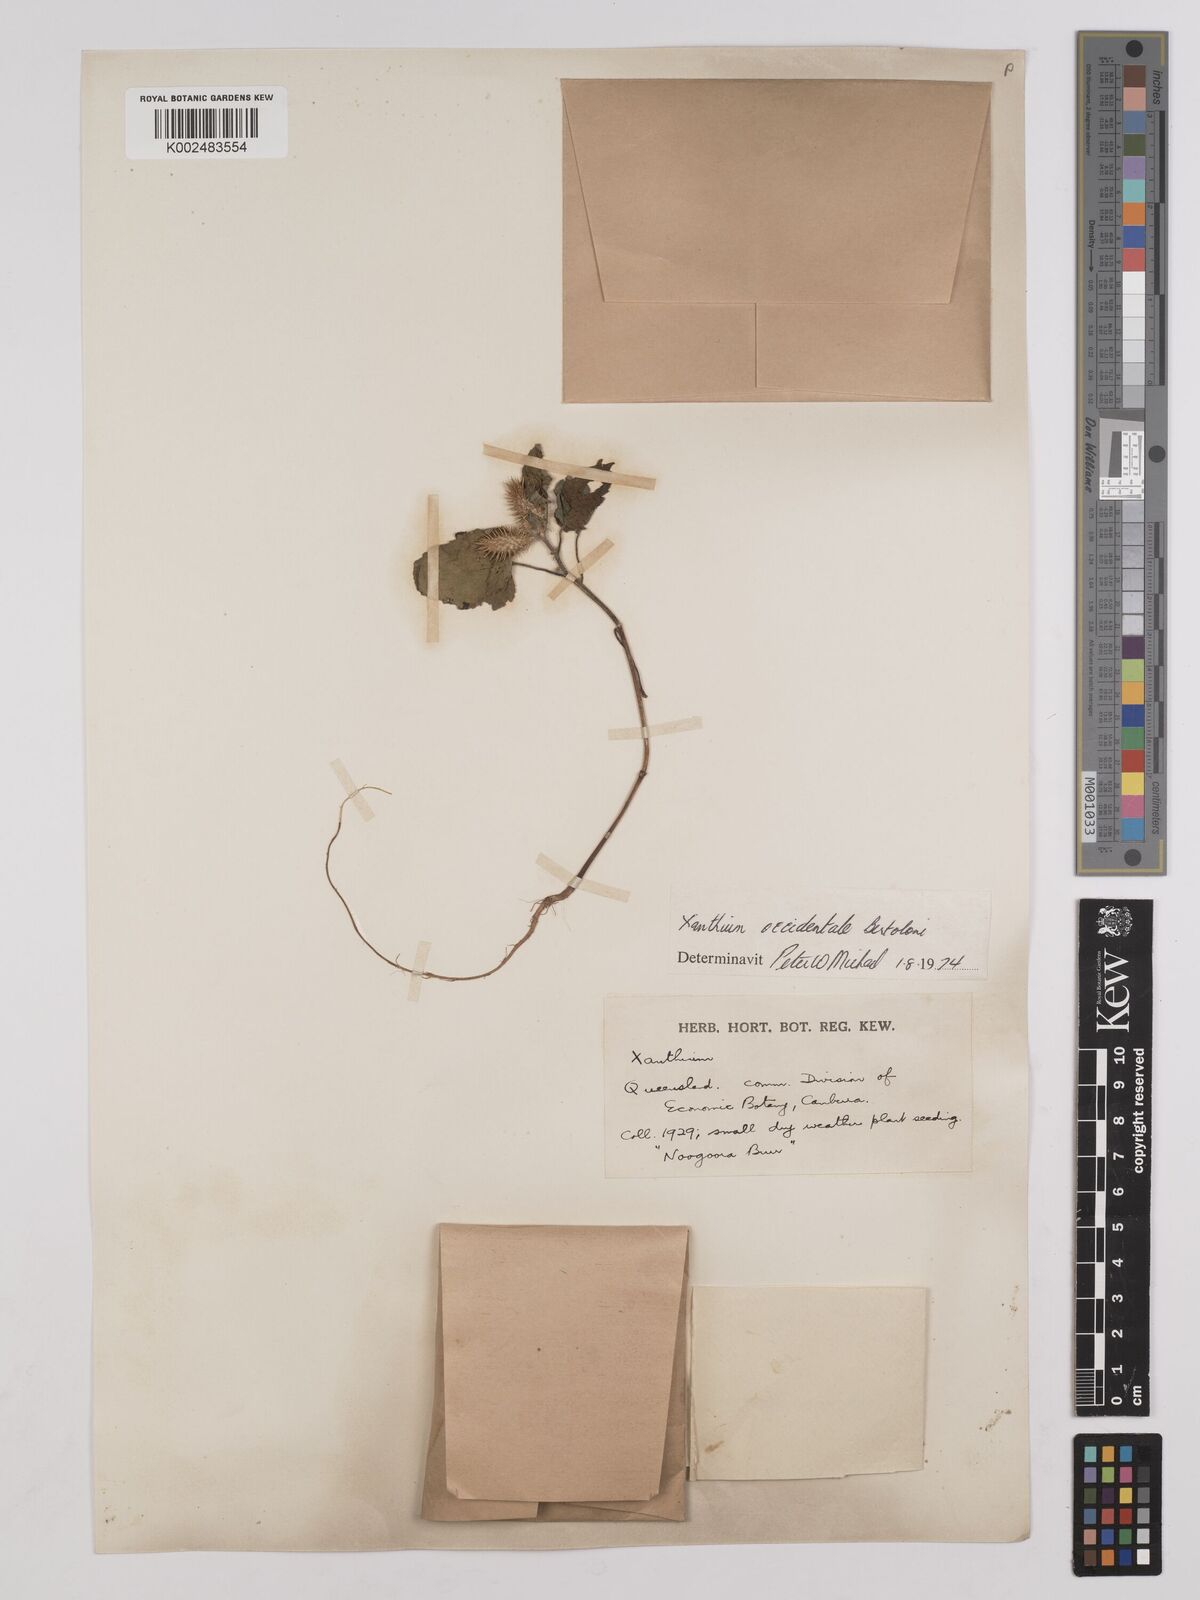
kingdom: Plantae
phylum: Tracheophyta
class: Magnoliopsida
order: Asterales
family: Asteraceae
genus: Xanthium
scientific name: Xanthium occidentale
